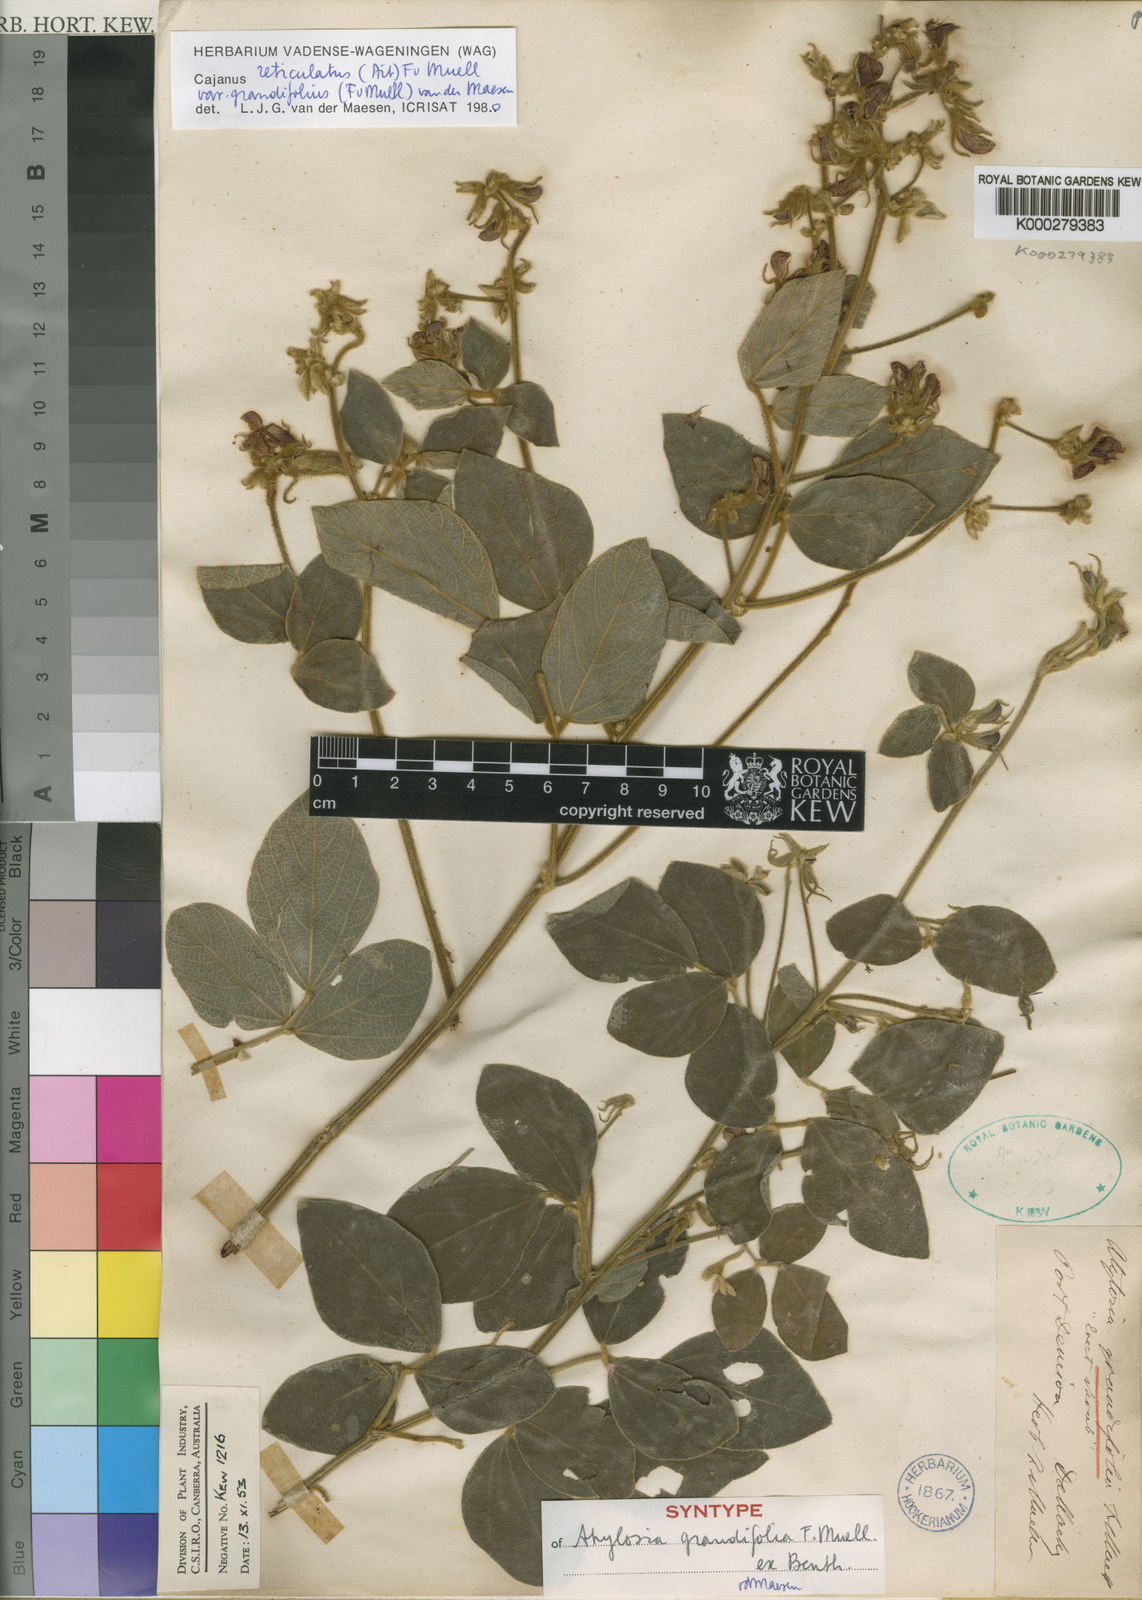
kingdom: Plantae
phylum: Tracheophyta
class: Magnoliopsida
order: Fabales
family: Fabaceae
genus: Cajanus
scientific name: Cajanus reticulatus
